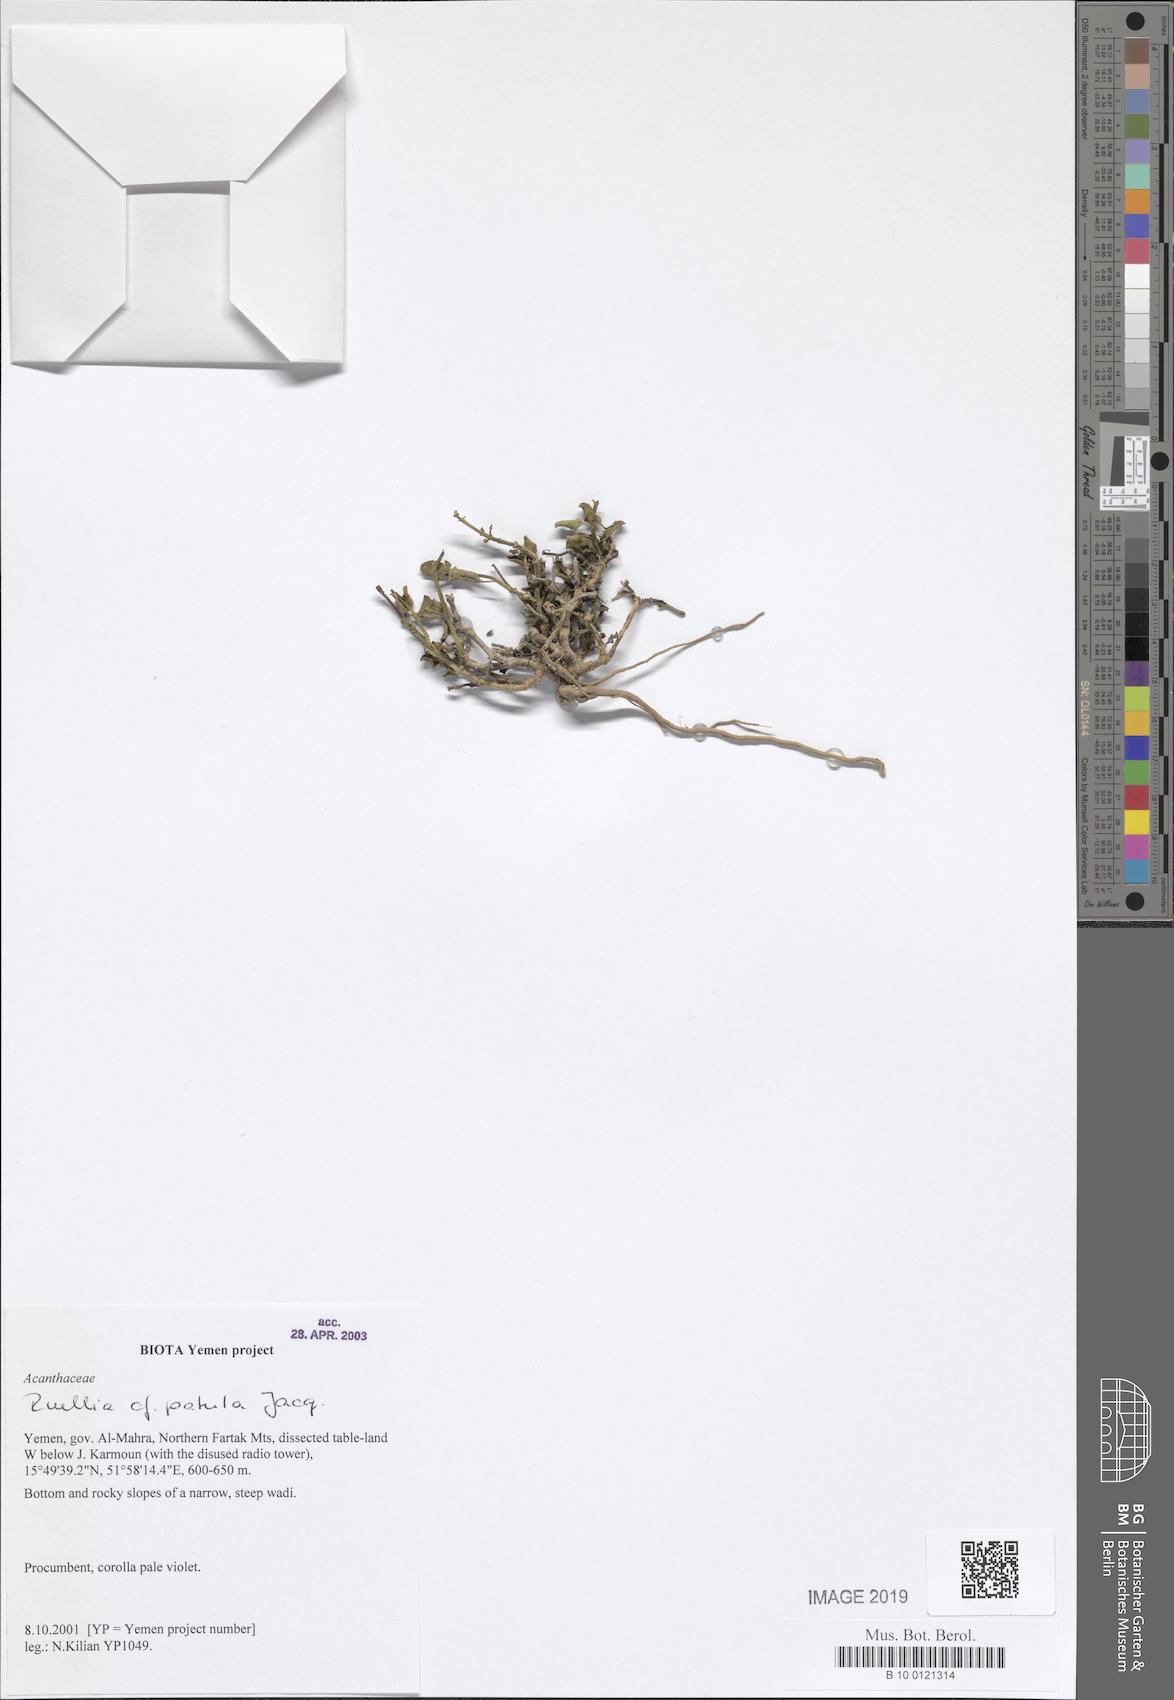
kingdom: Plantae
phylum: Tracheophyta
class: Magnoliopsida
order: Lamiales
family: Acanthaceae
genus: Ruellia
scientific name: Ruellia patula
